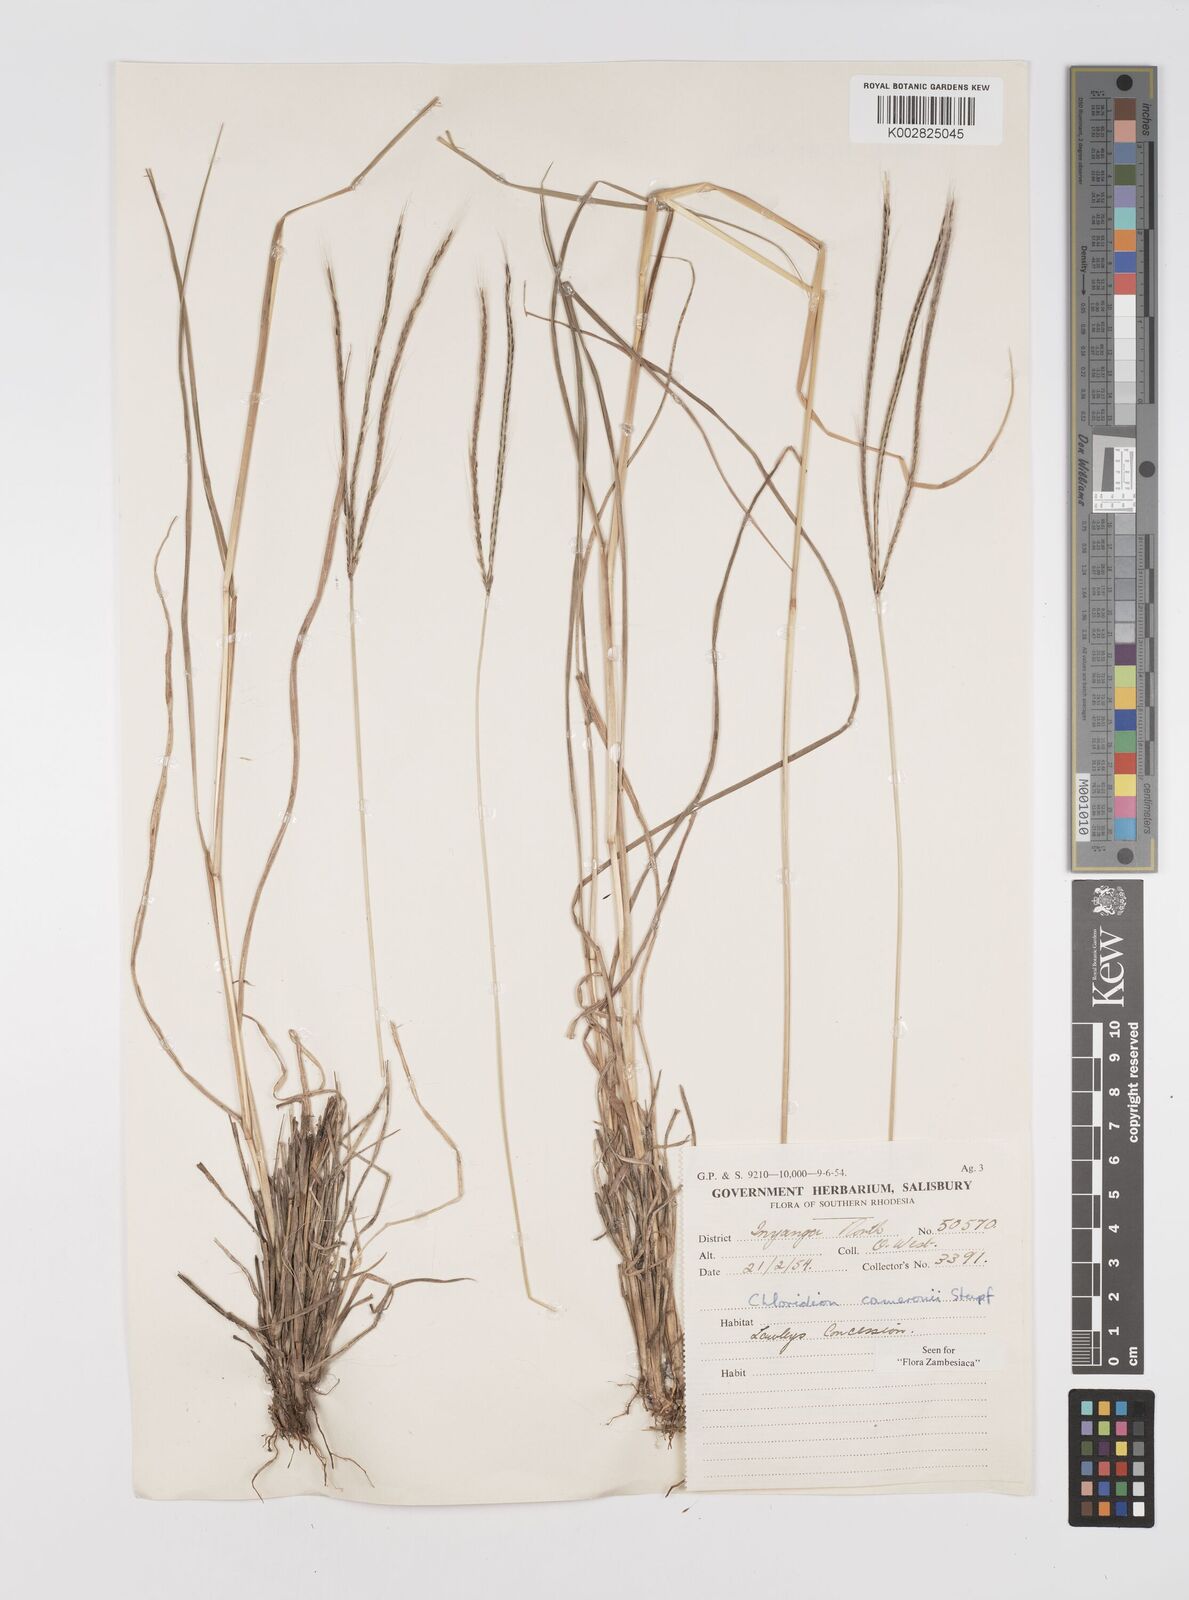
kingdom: Plantae
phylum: Tracheophyta
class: Liliopsida
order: Poales
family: Poaceae
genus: Stereochlaena
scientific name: Stereochlaena cameronii
